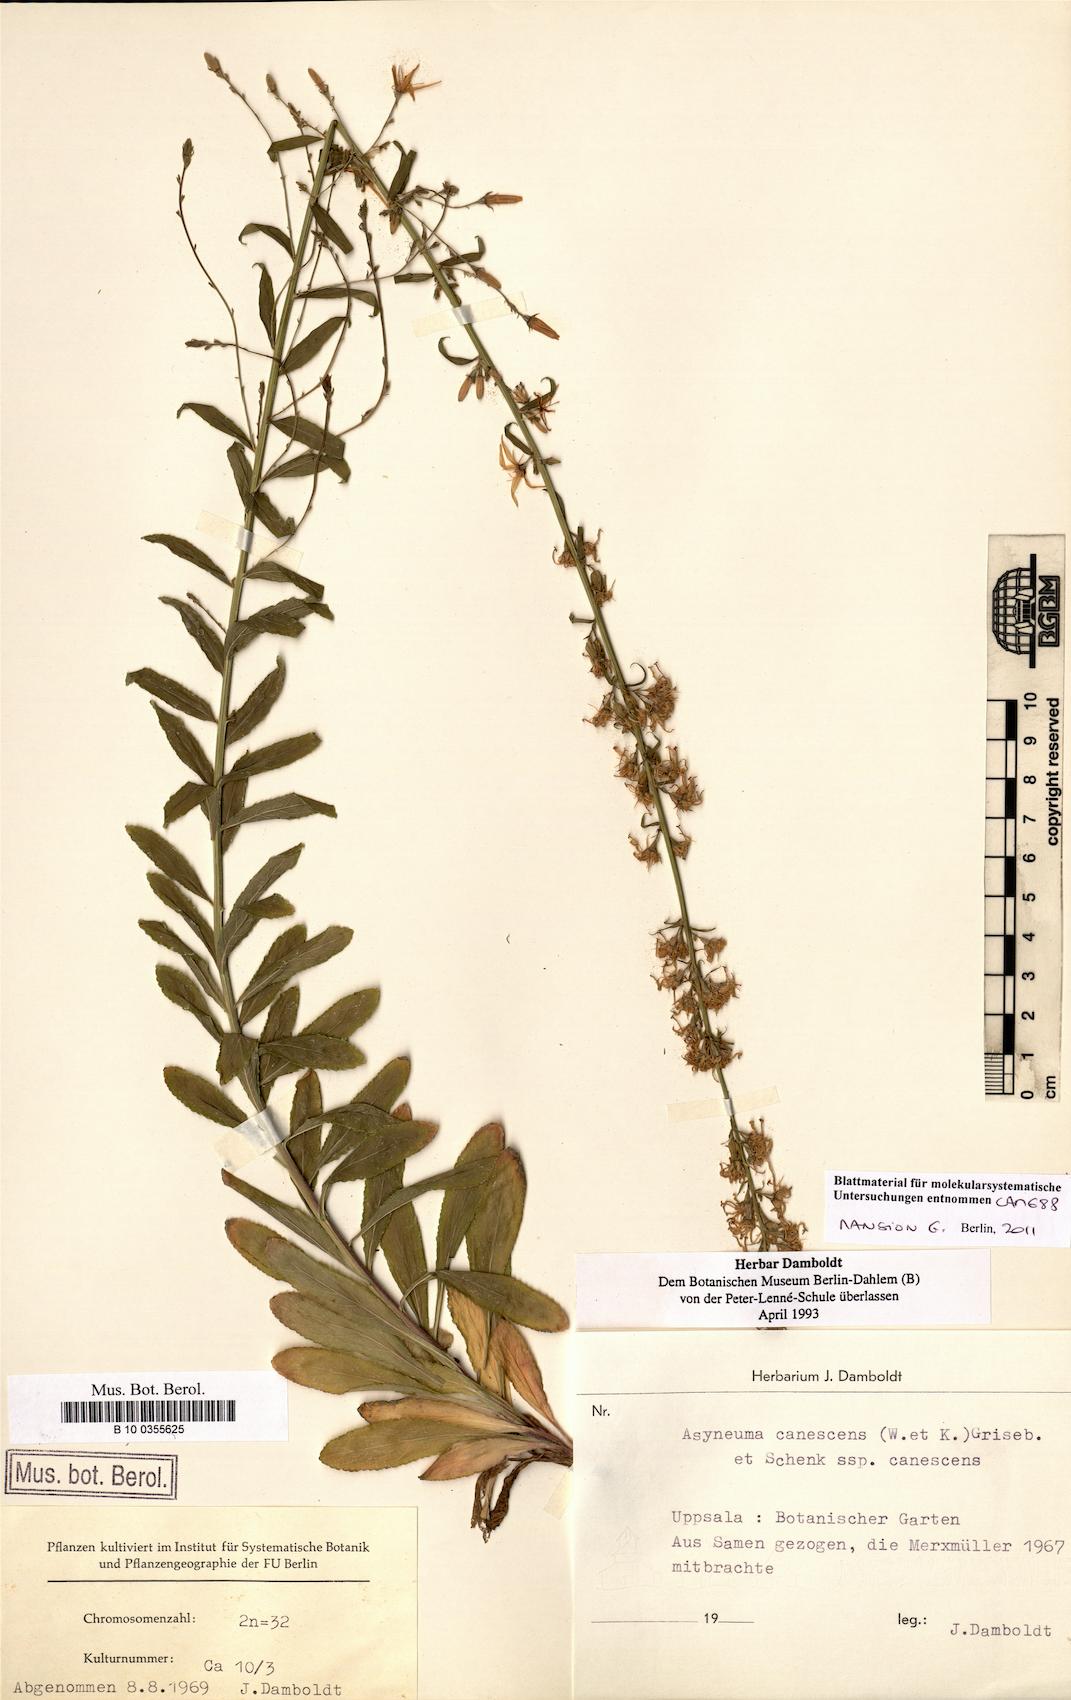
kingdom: Plantae
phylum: Tracheophyta
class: Magnoliopsida
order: Asterales
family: Campanulaceae
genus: Asyneuma
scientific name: Asyneuma canescens
